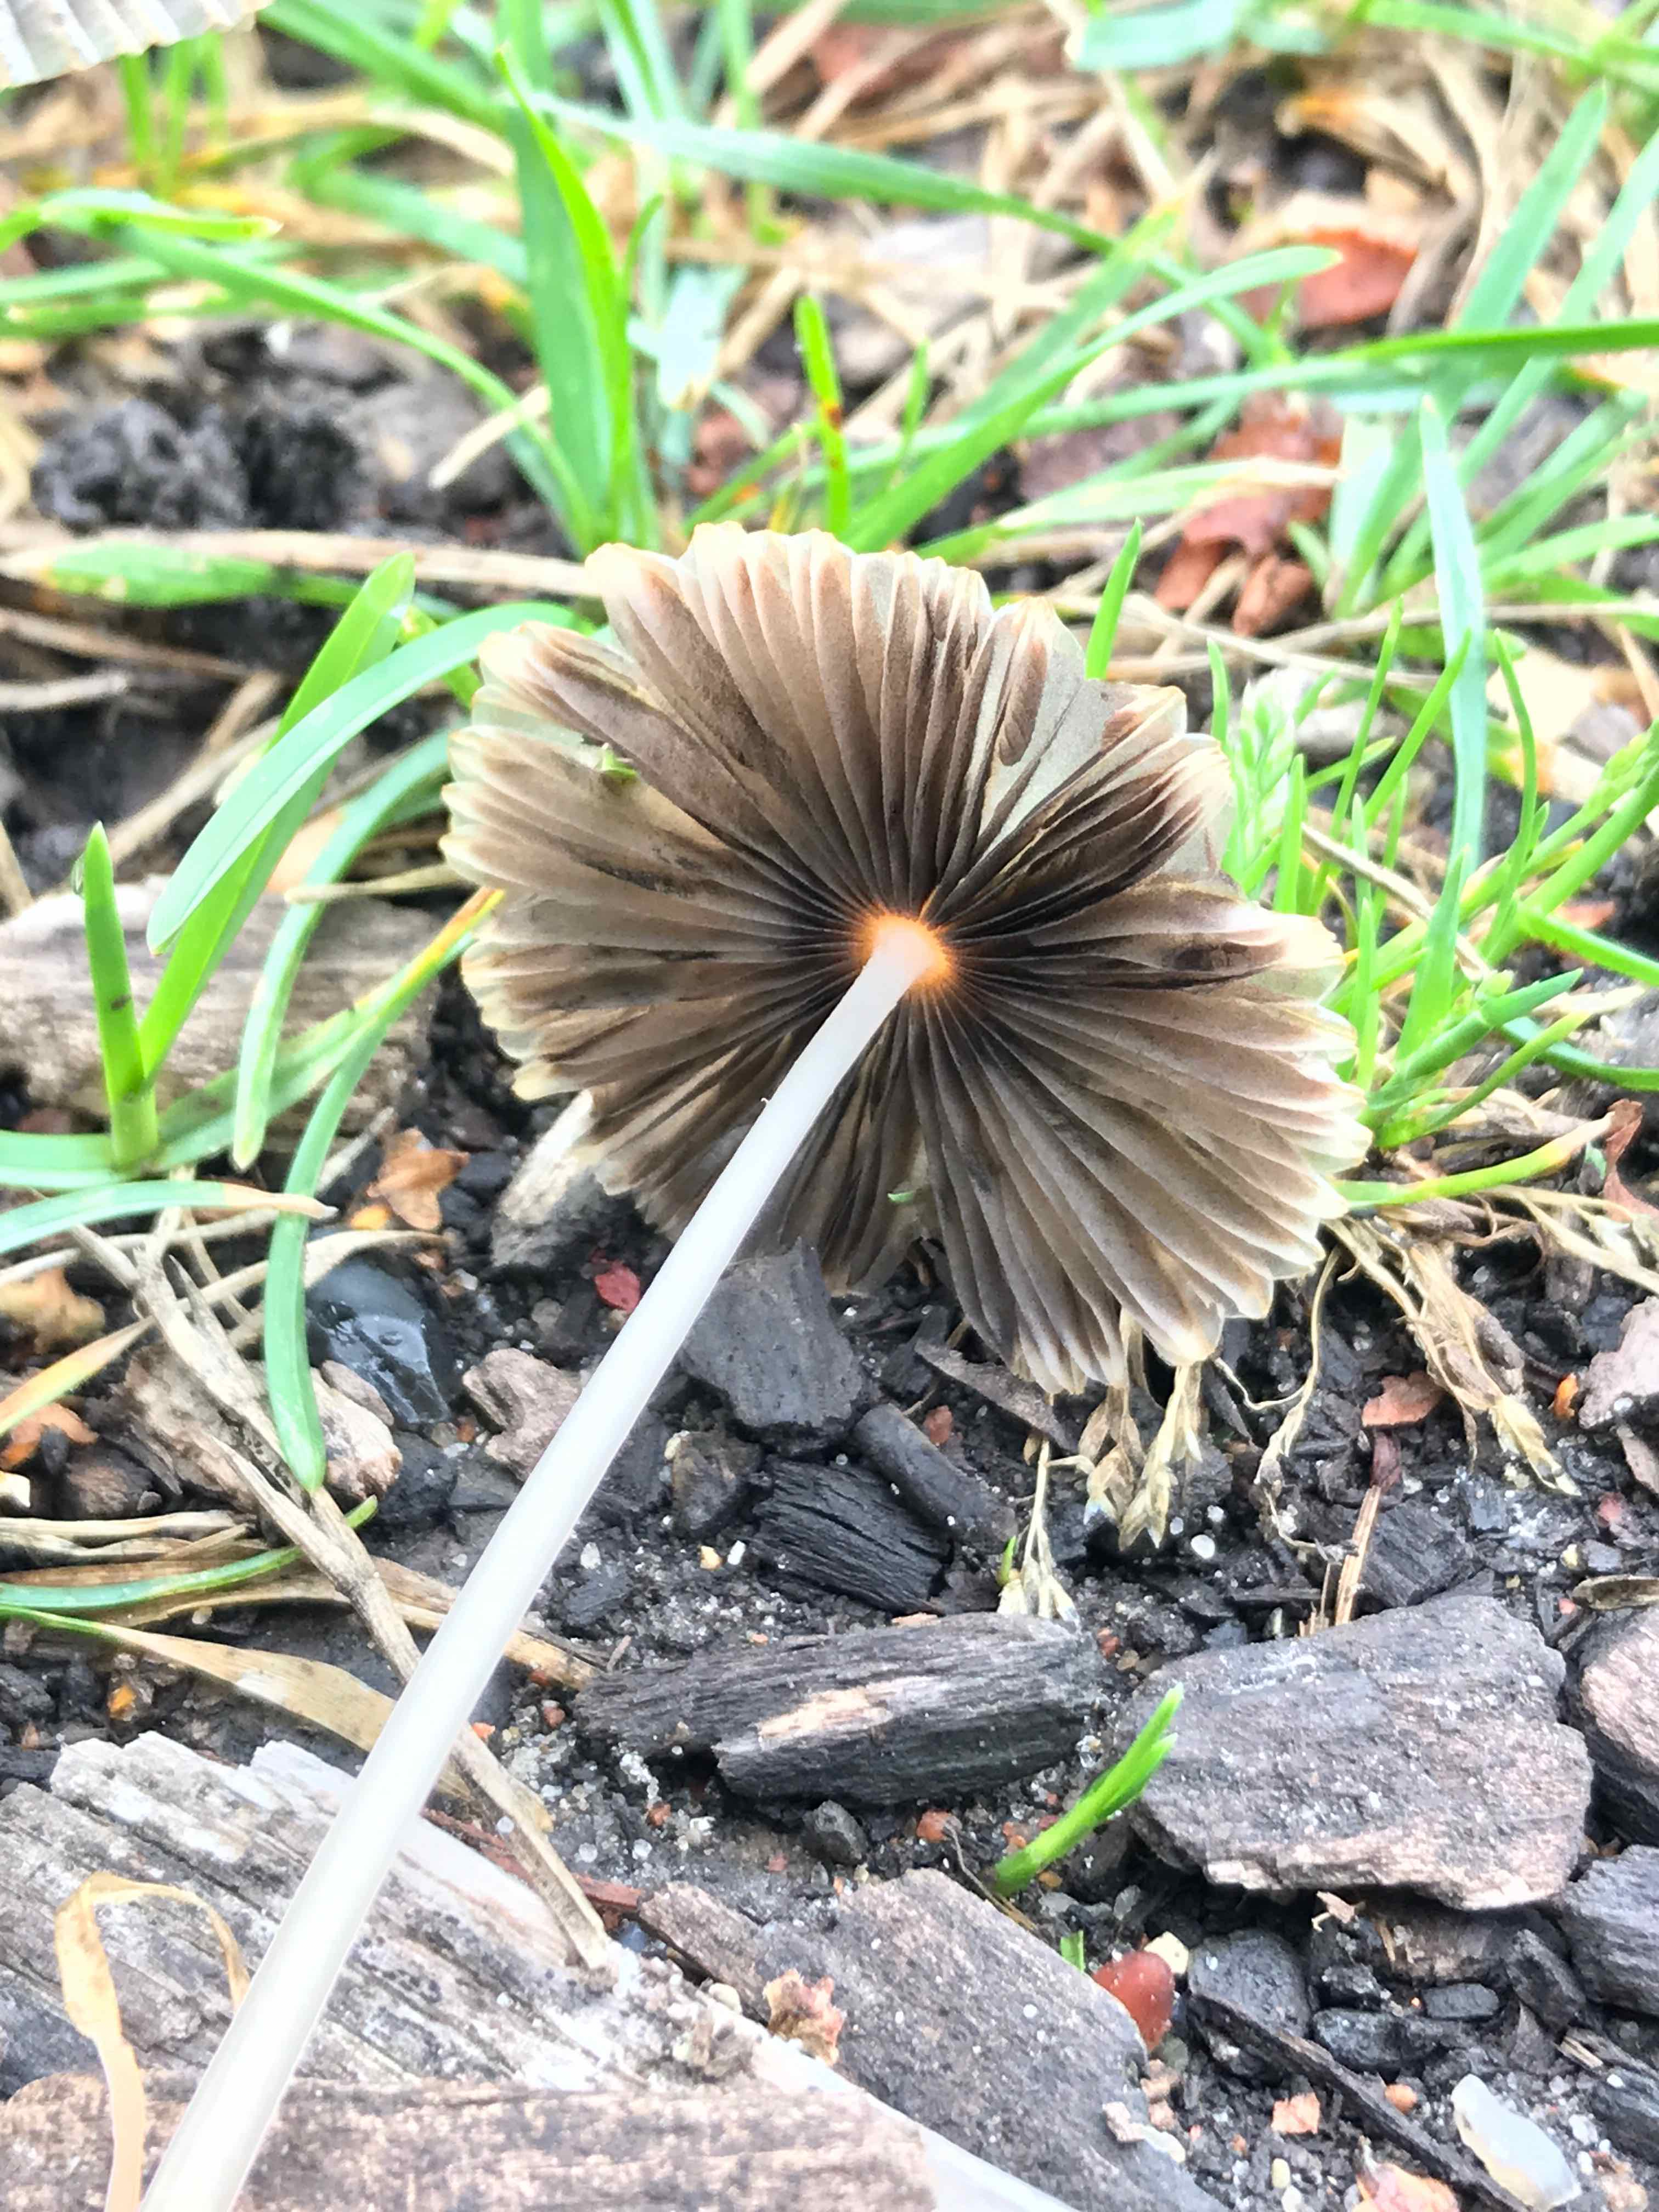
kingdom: Fungi
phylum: Basidiomycota
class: Agaricomycetes
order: Agaricales
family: Psathyrellaceae
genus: Parasola
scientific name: Parasola auricoma
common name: hansens hjulhat
